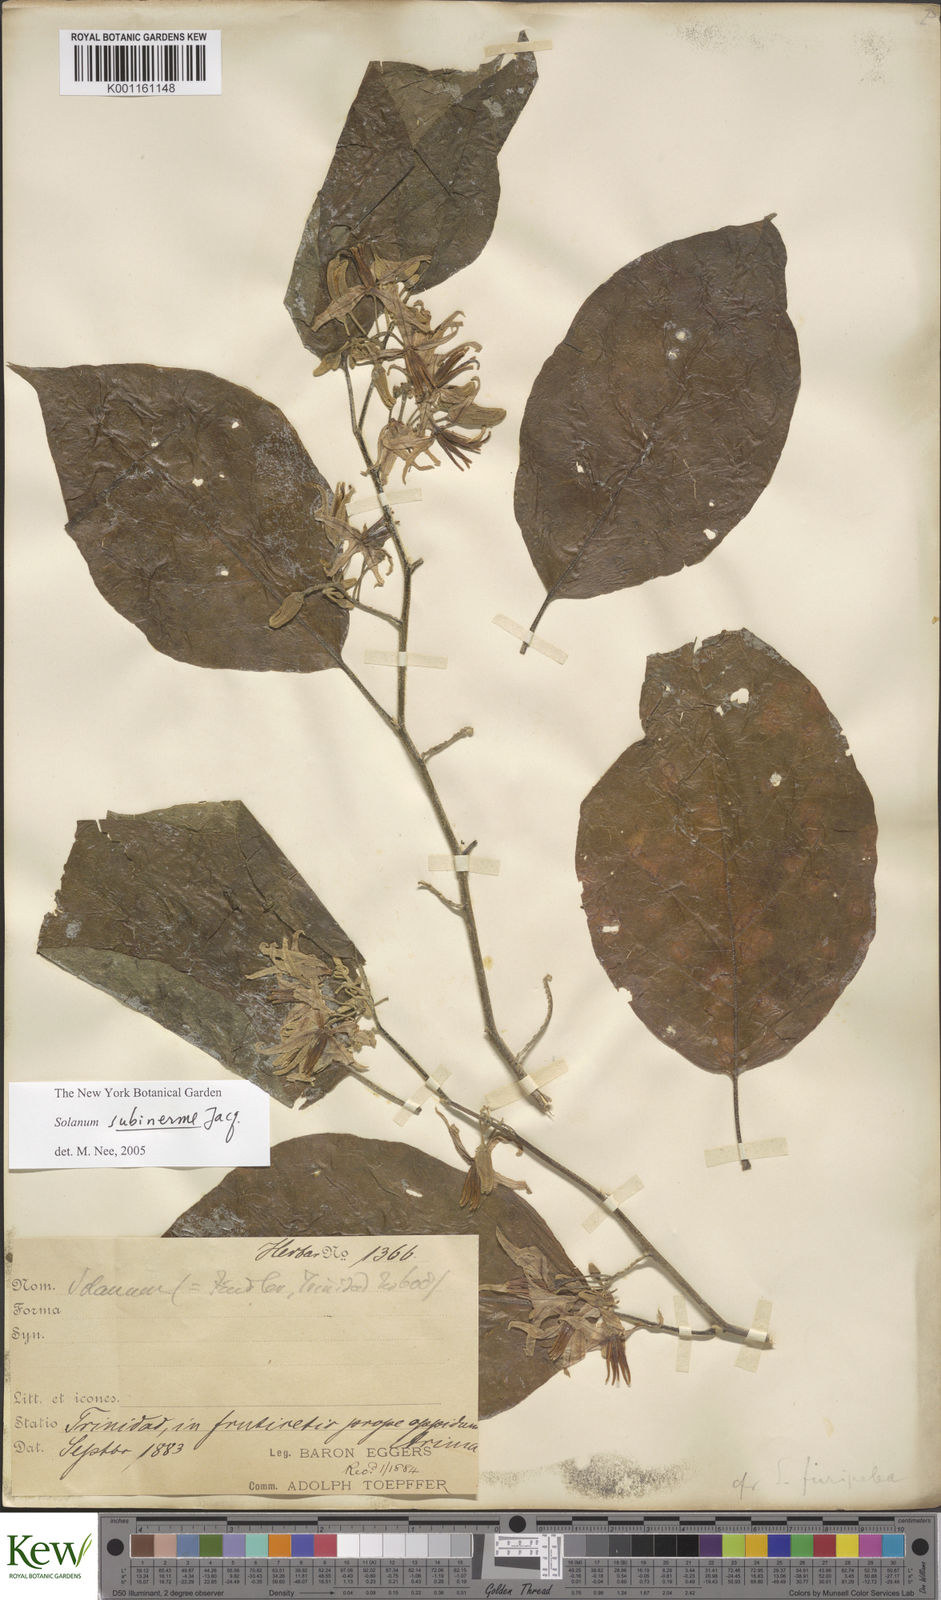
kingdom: Plantae
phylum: Tracheophyta
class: Magnoliopsida
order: Solanales
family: Solanaceae
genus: Solanum
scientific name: Solanum subinerme
